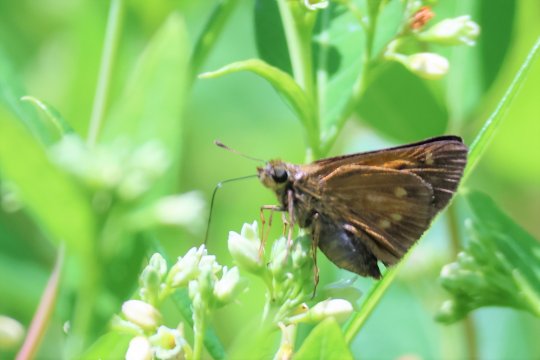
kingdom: Animalia
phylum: Arthropoda
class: Insecta
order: Lepidoptera
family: Hesperiidae
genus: Poanes
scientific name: Poanes viator
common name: Broad-winged Skipper
